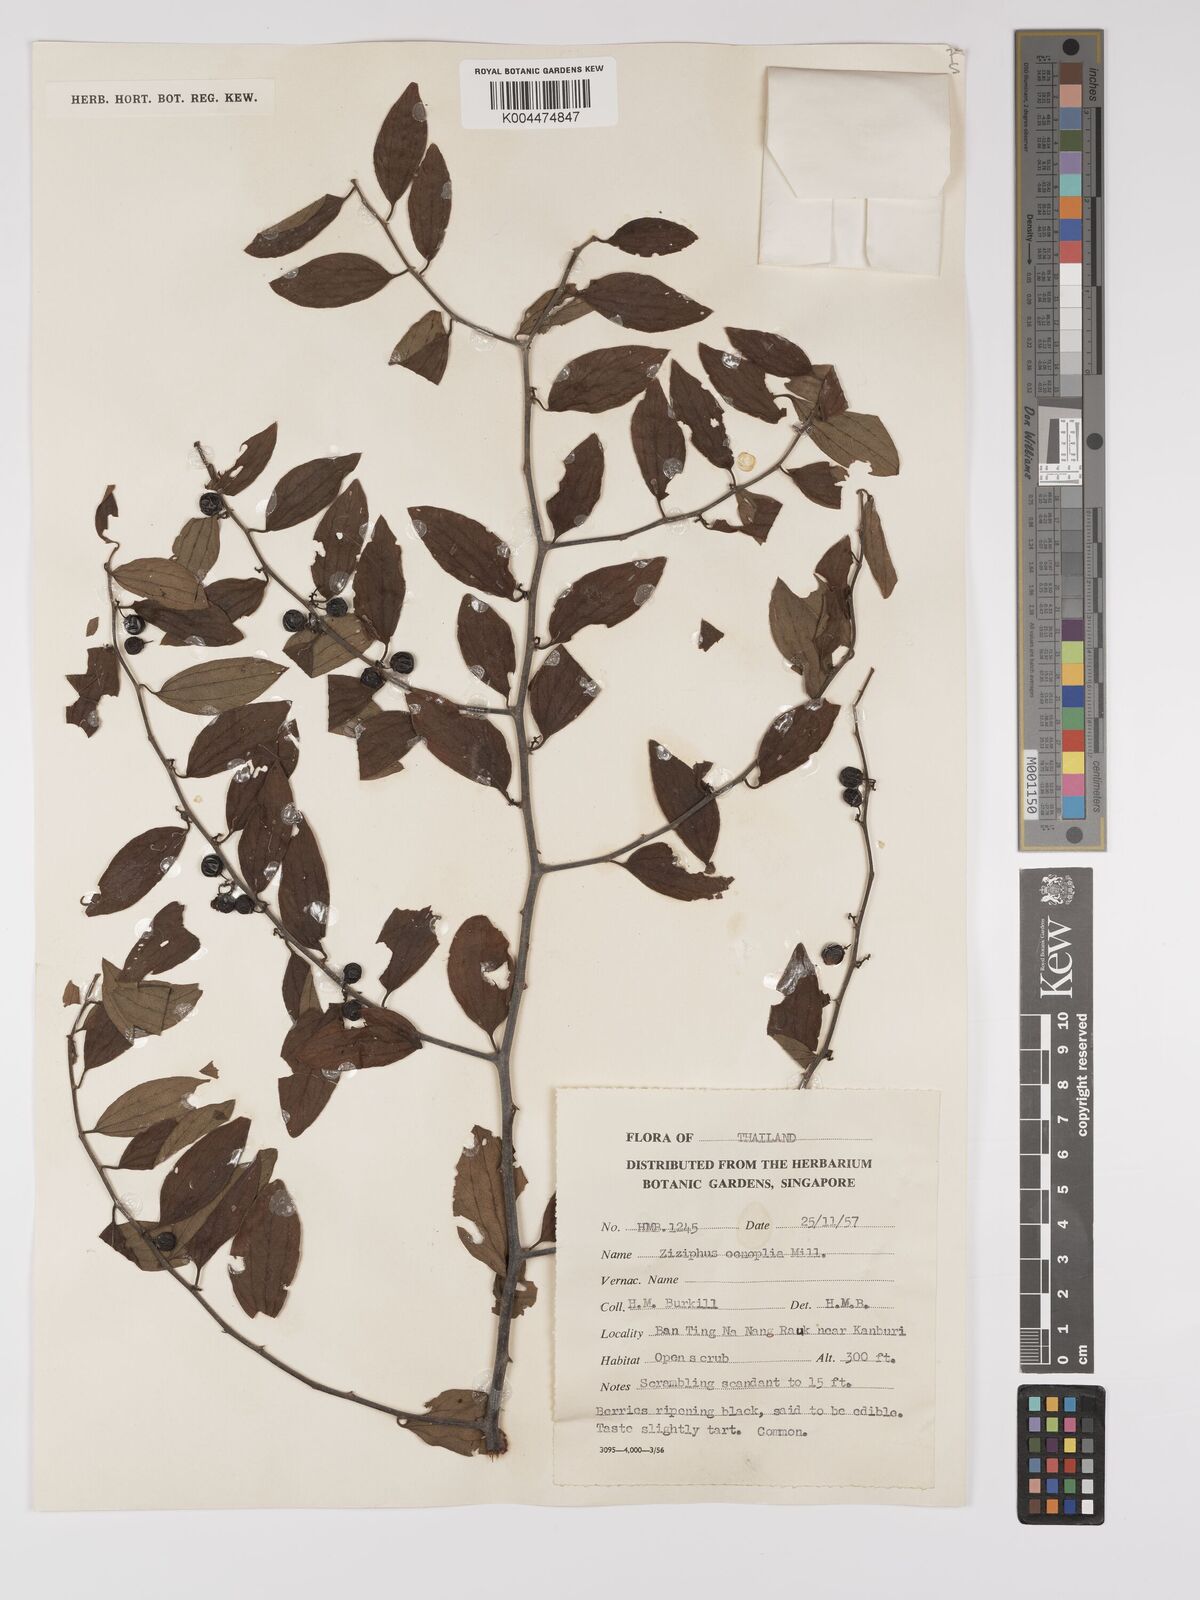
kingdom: Plantae
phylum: Tracheophyta
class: Magnoliopsida
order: Rosales
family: Rhamnaceae
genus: Ziziphus
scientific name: Ziziphus oenopolia
